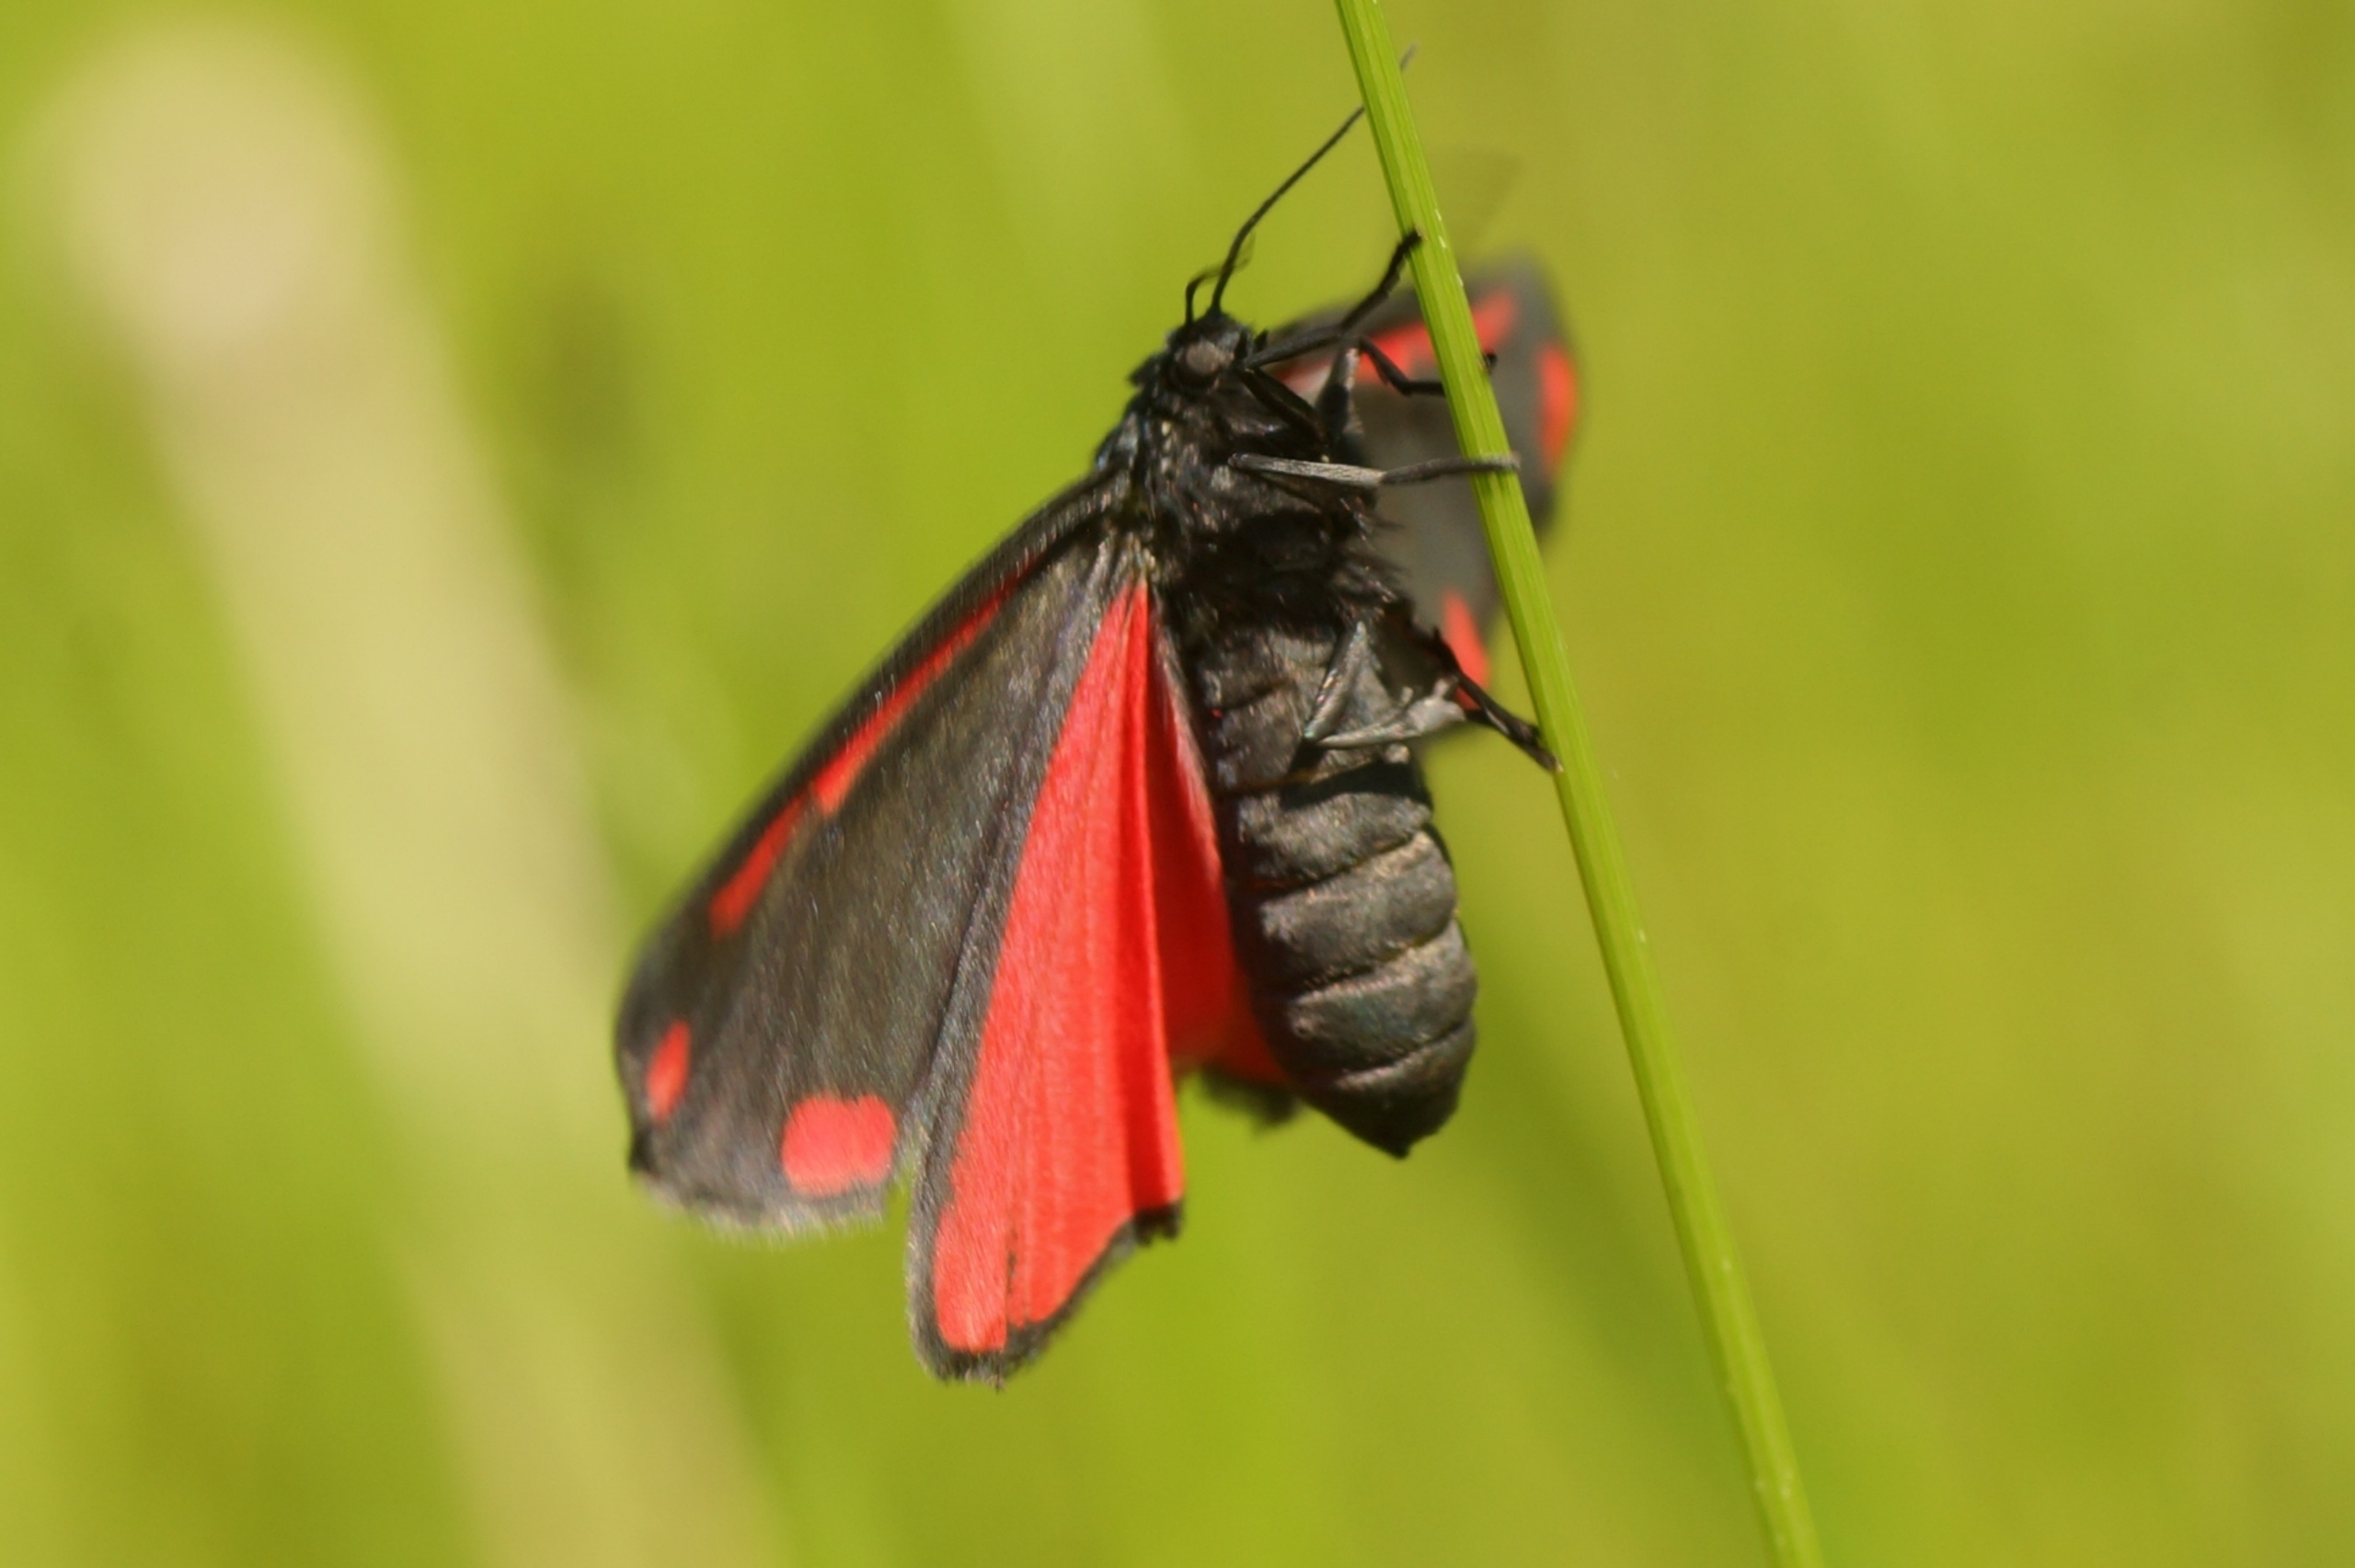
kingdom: Animalia
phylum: Arthropoda
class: Insecta
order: Lepidoptera
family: Erebidae
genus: Tyria
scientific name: Tyria jacobaeae
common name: Blodplet
